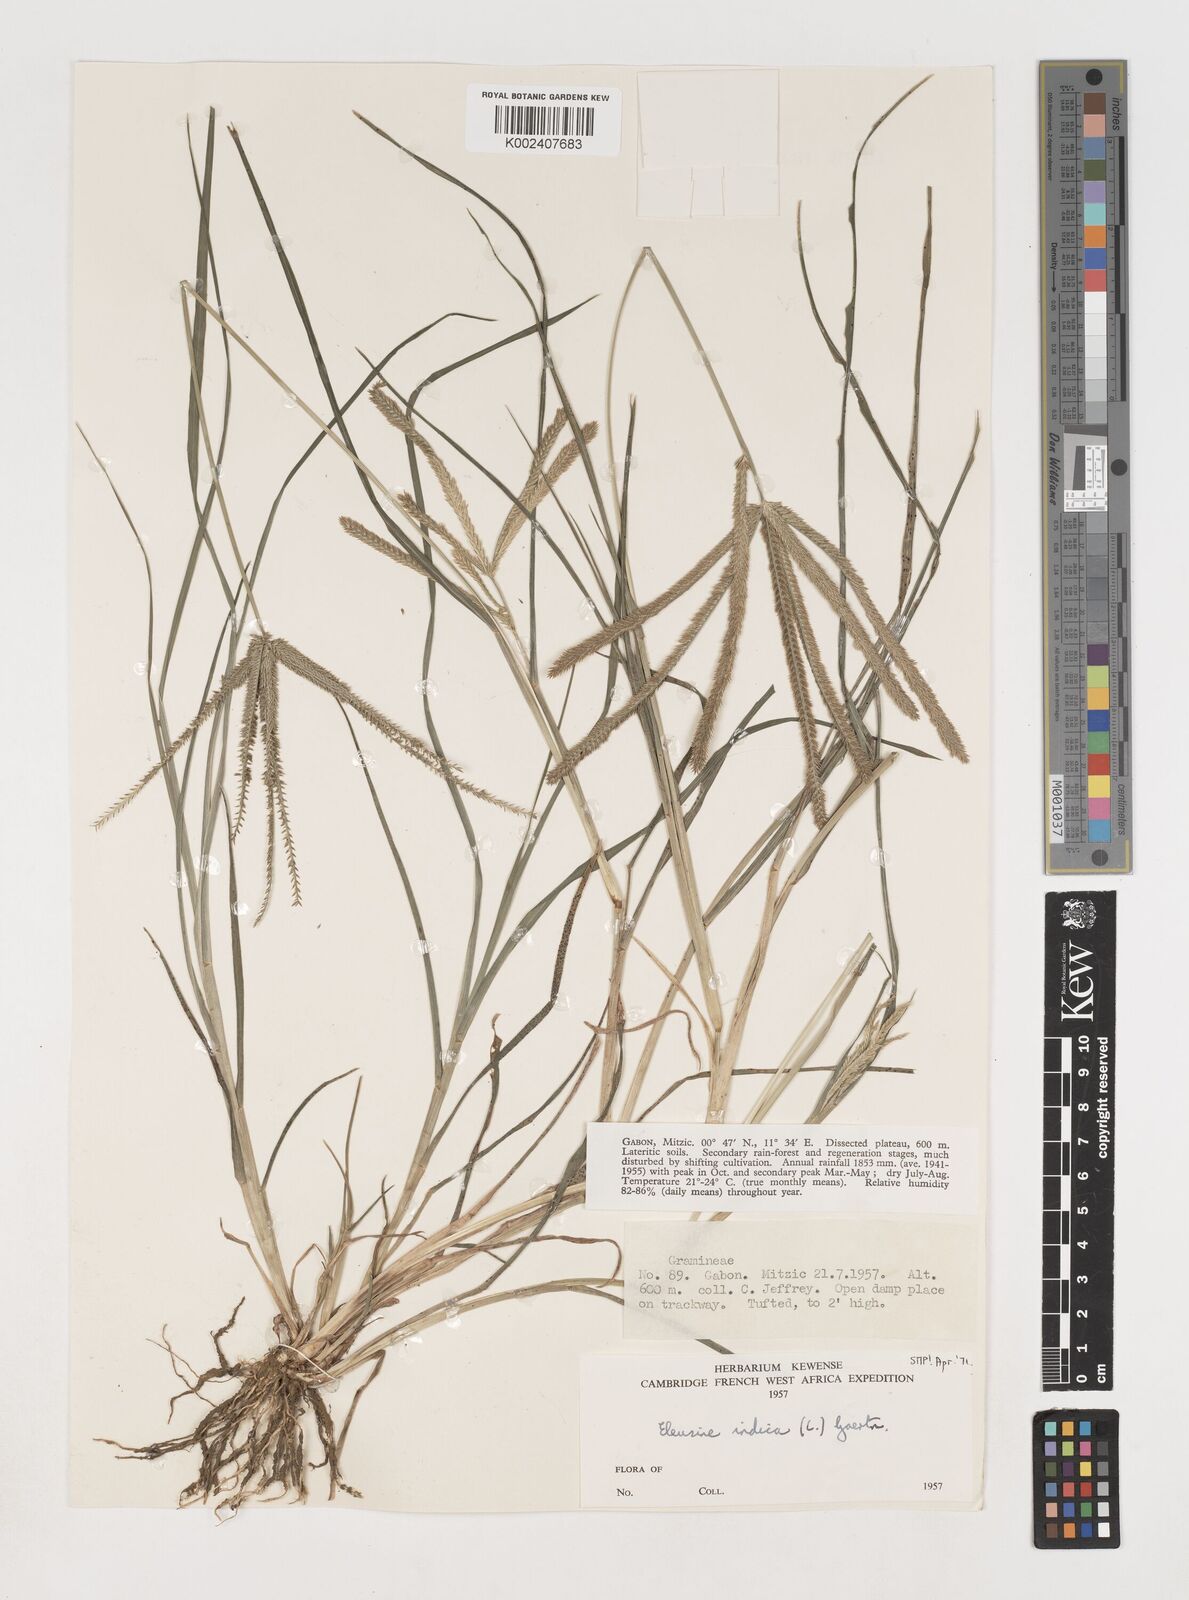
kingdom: Plantae
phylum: Tracheophyta
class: Liliopsida
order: Poales
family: Poaceae
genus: Eleusine
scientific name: Eleusine indica
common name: Yard-grass
